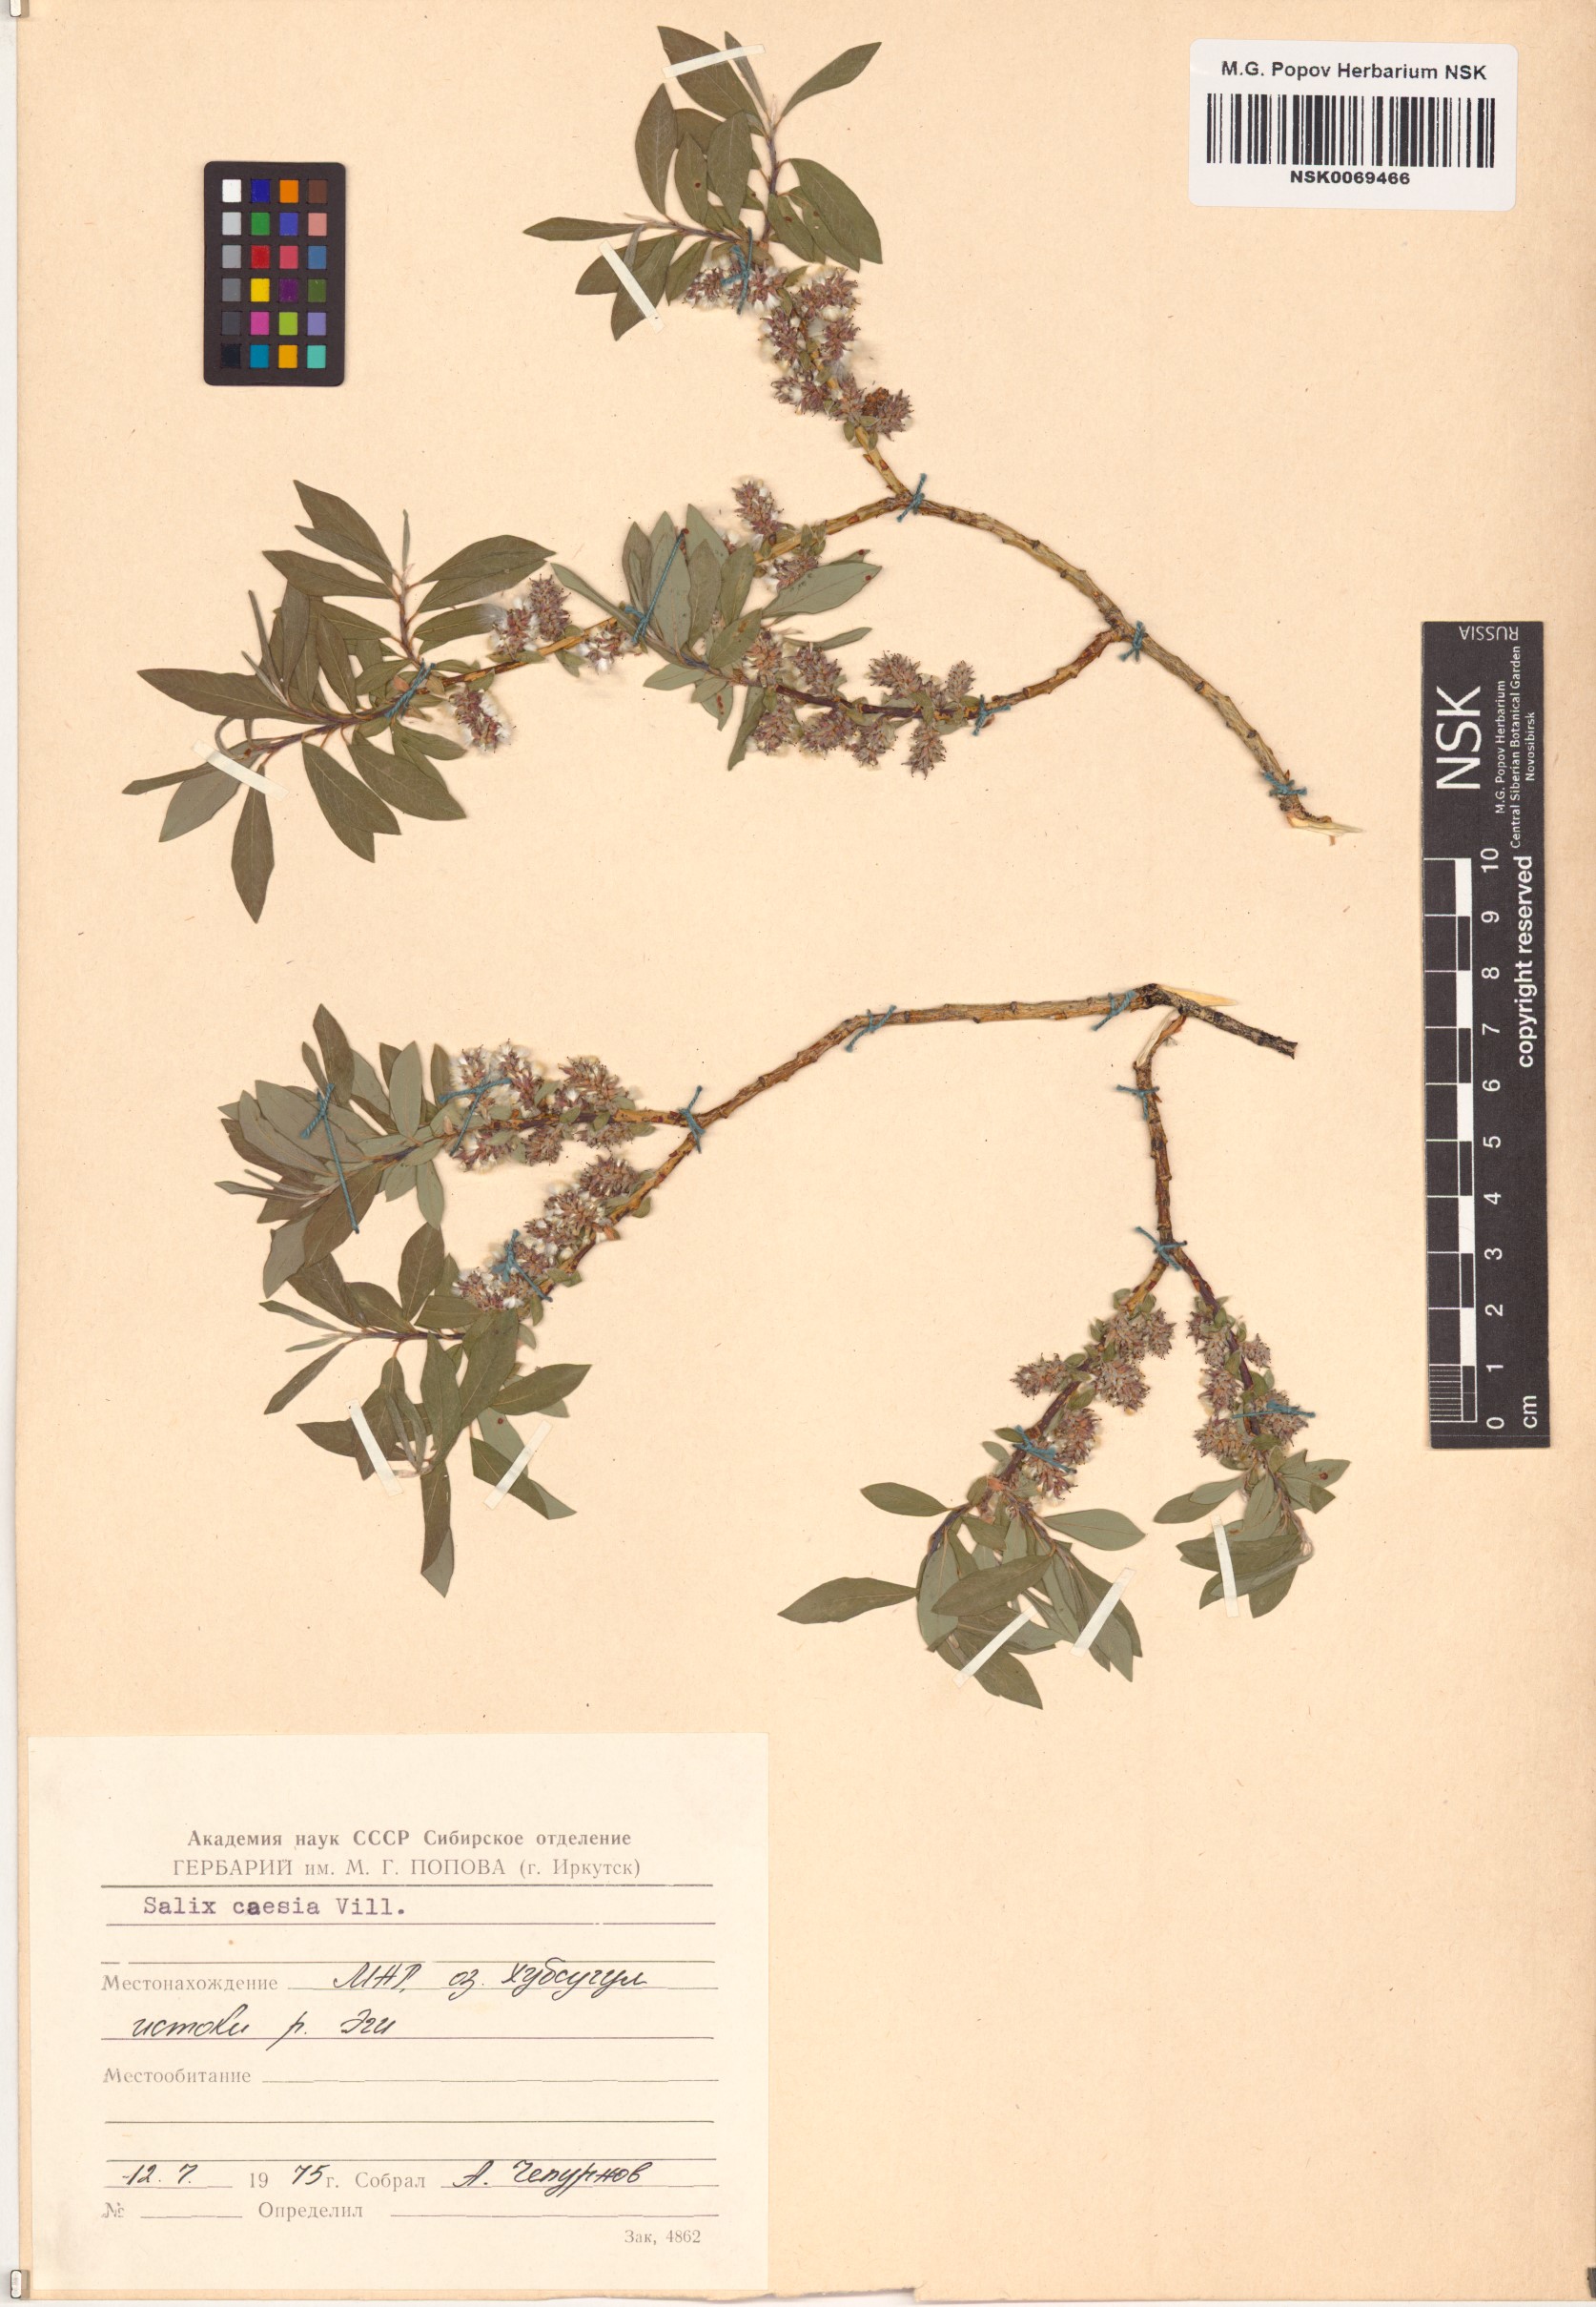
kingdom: Plantae
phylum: Tracheophyta
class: Magnoliopsida
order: Malpighiales
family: Salicaceae
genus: Salix
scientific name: Salix caesia
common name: Blue willow
